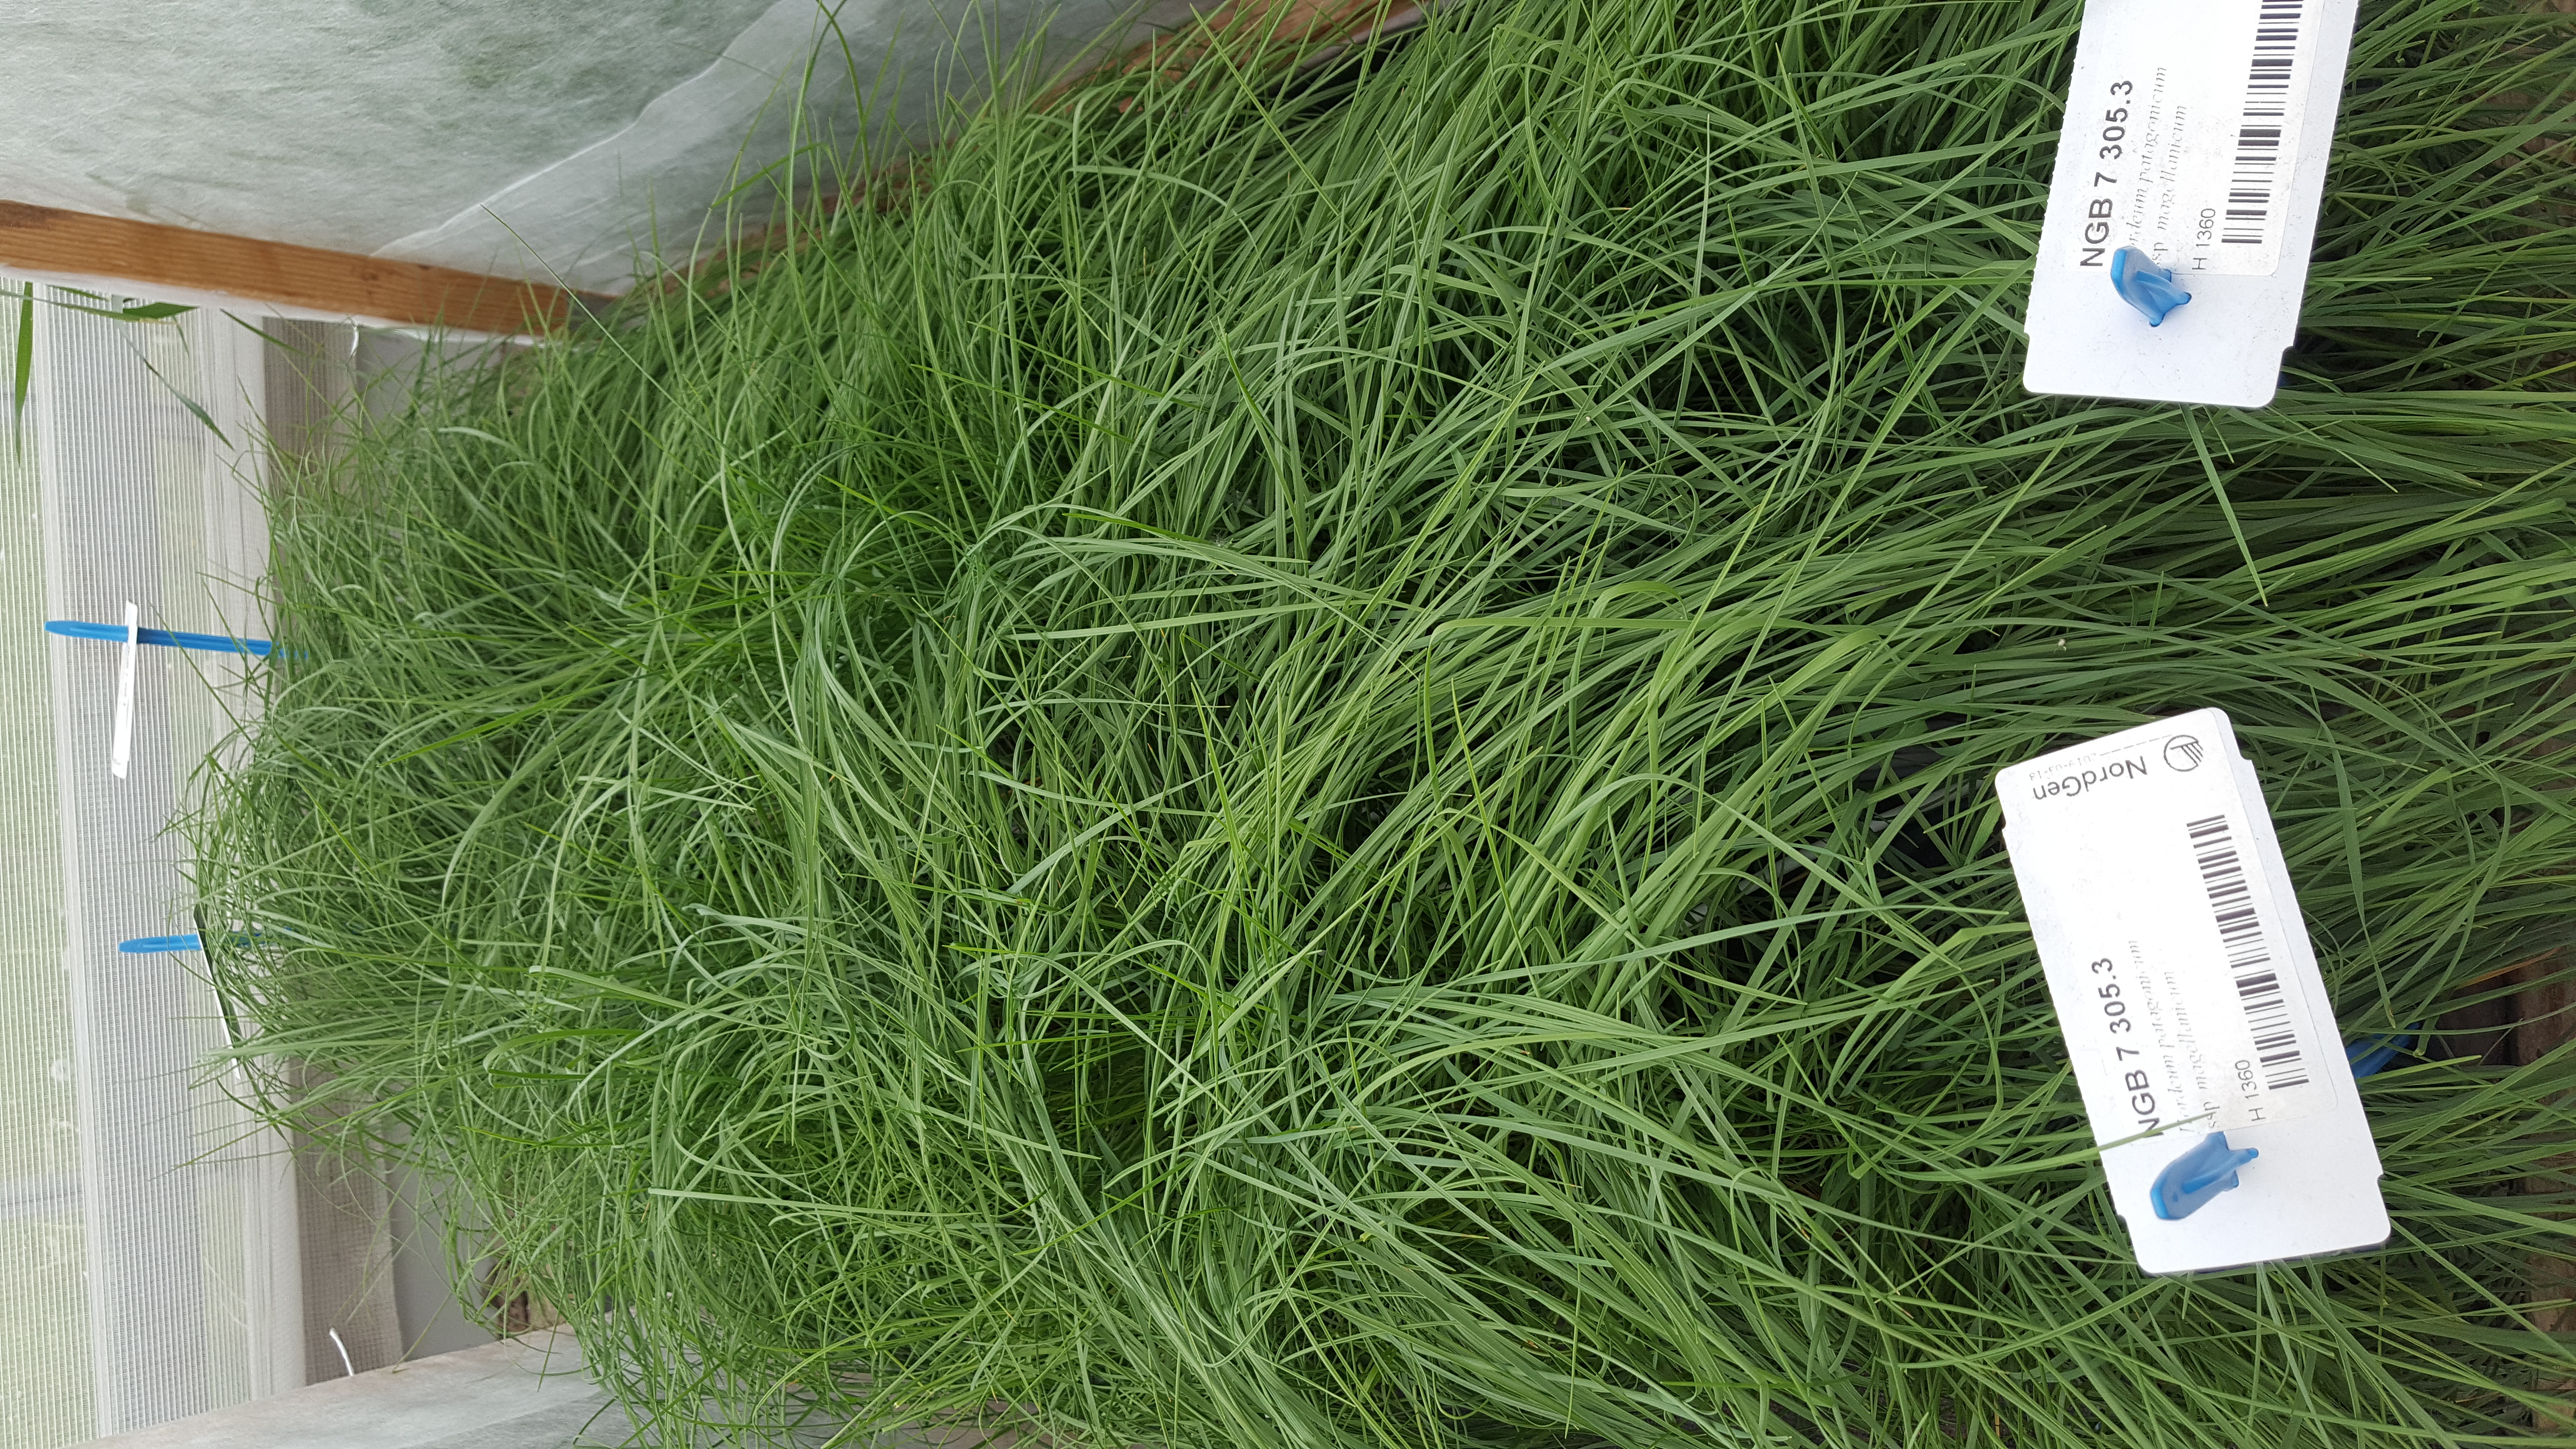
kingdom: Plantae
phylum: Tracheophyta
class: Liliopsida
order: Poales
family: Poaceae
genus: Hordeum
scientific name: Hordeum patagonicum
